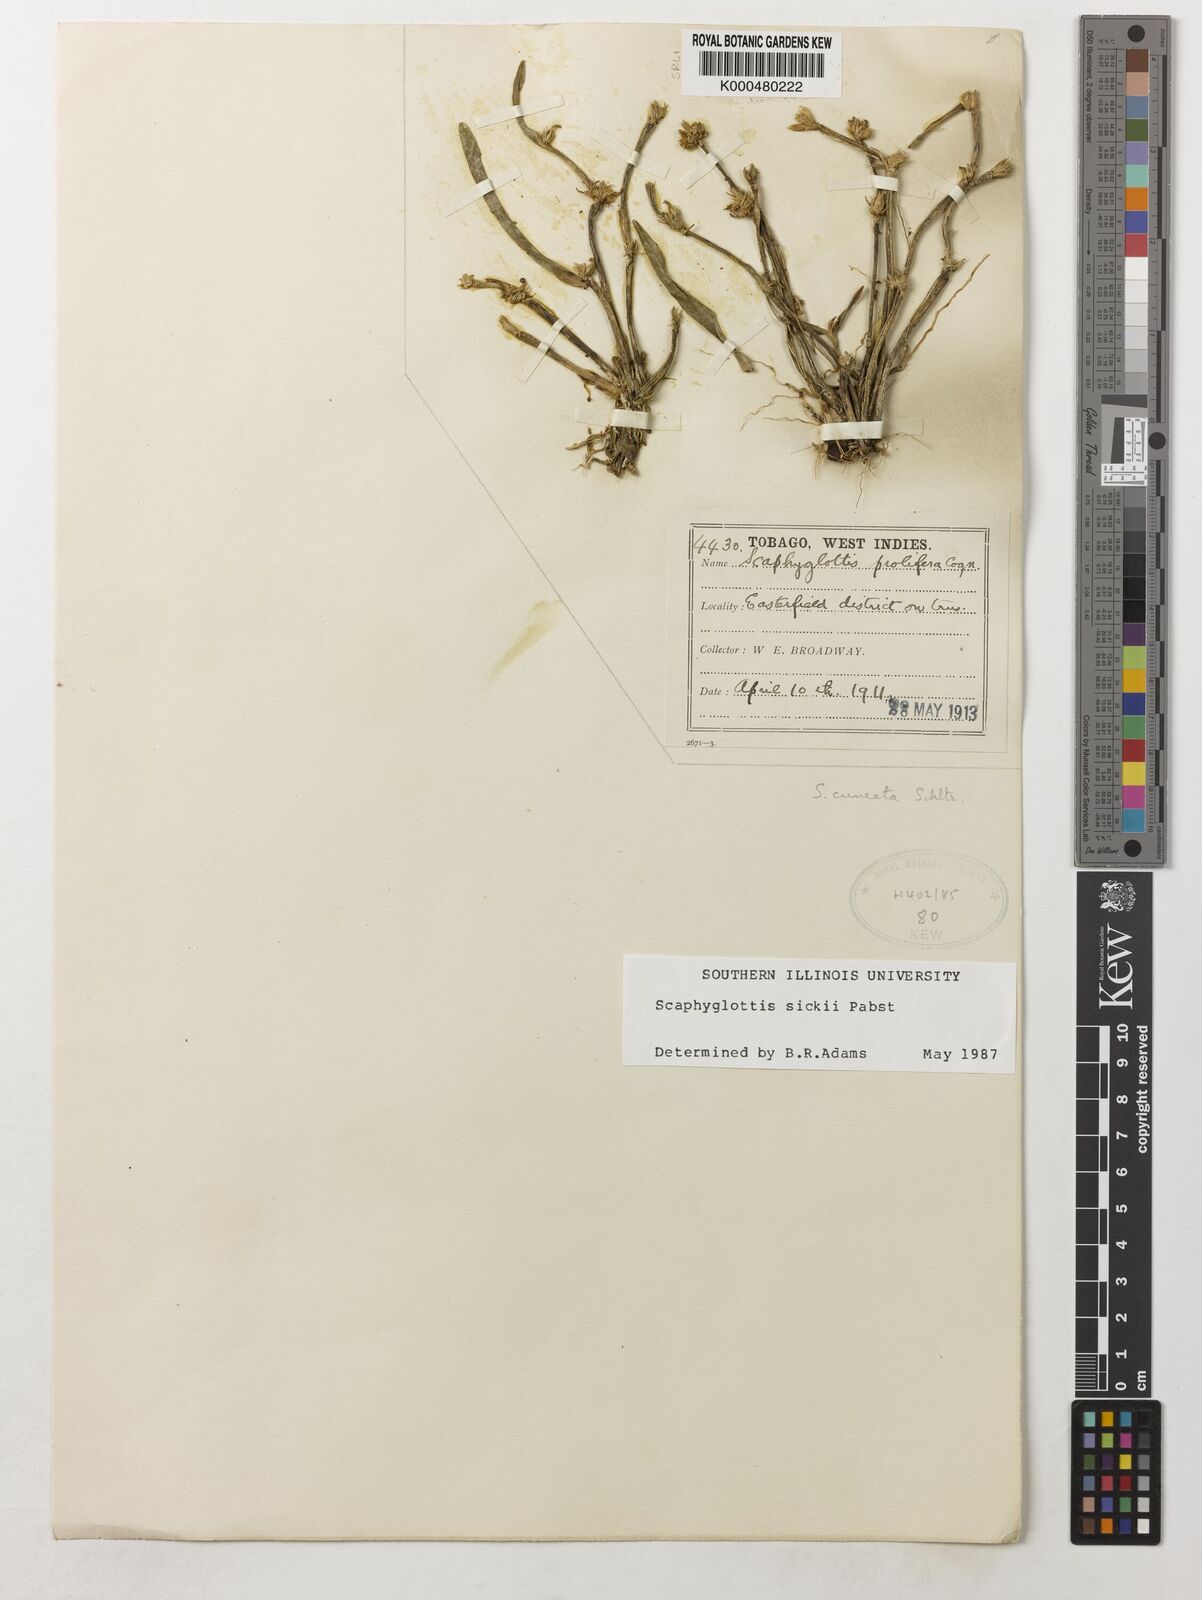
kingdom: Plantae
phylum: Tracheophyta
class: Liliopsida
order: Asparagales
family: Orchidaceae
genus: Scaphyglottis
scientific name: Scaphyglottis sickii
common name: Sicks scaphyglottis
